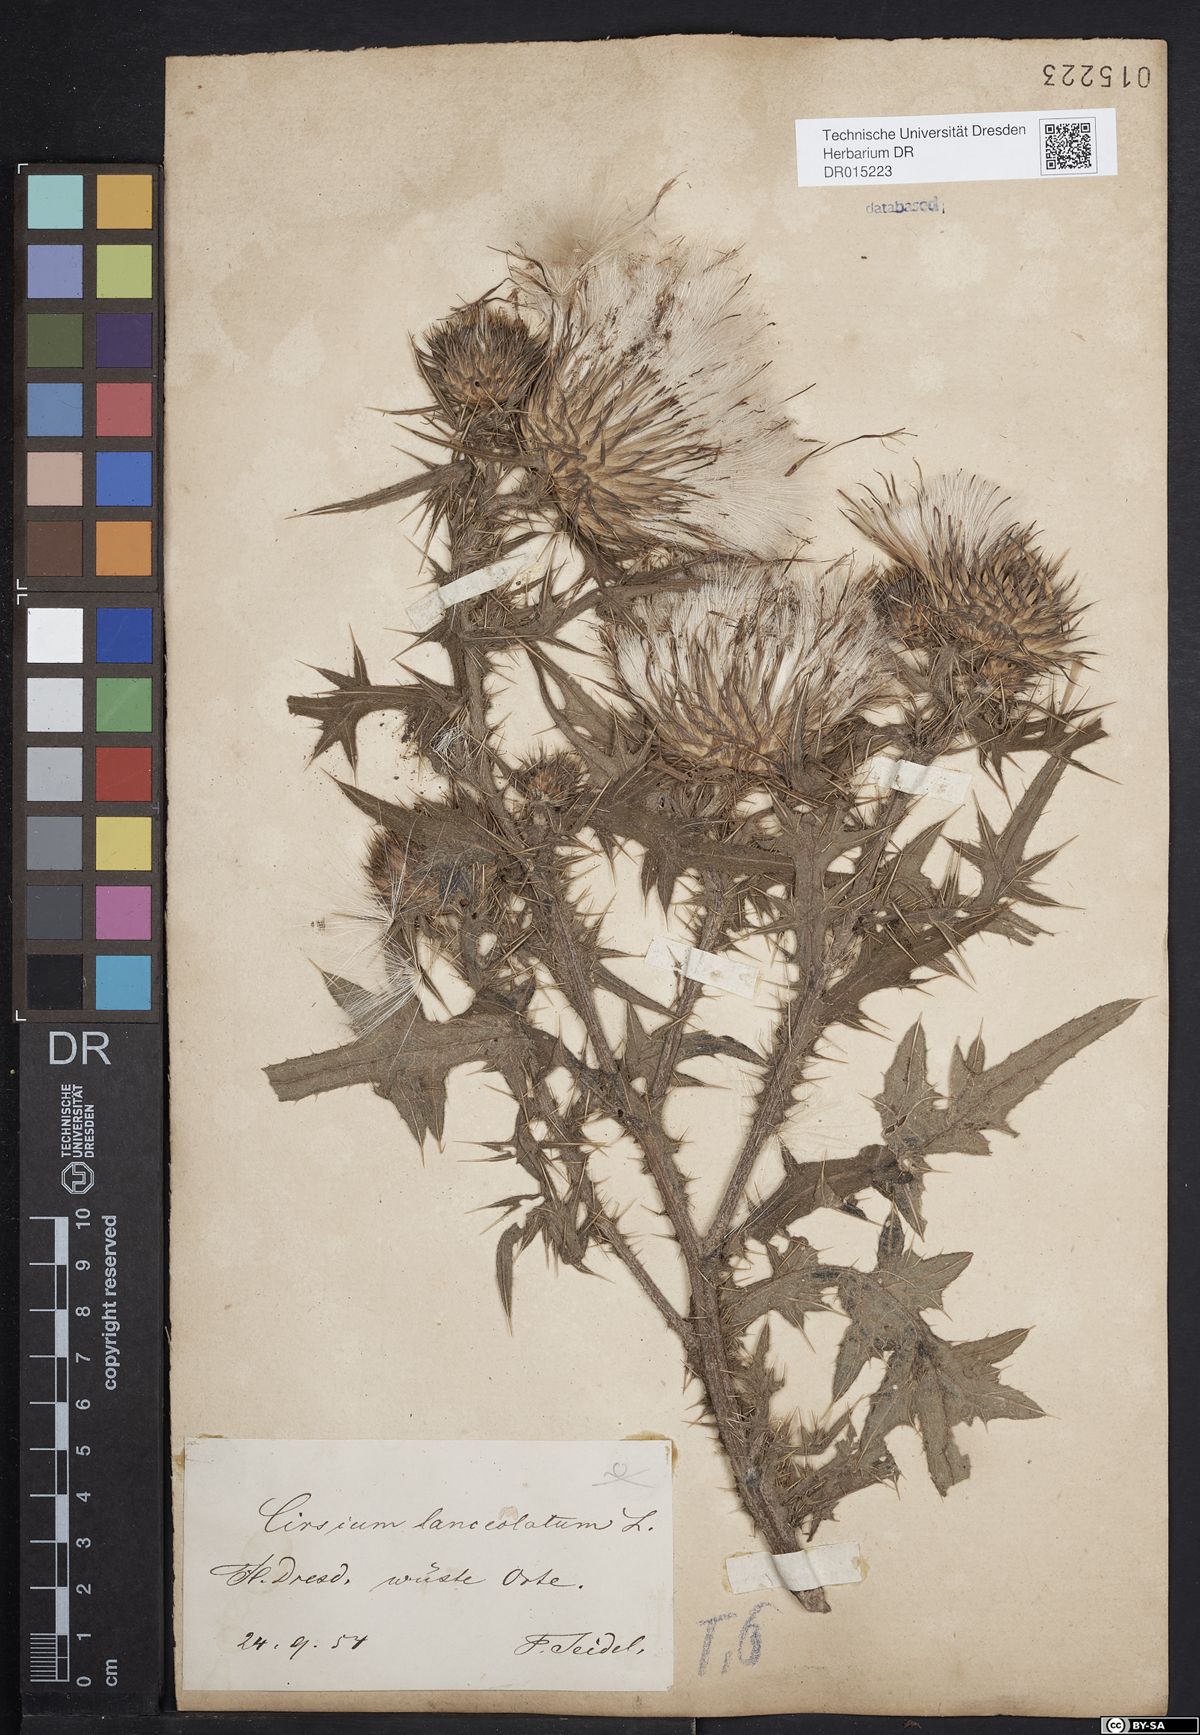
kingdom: Plantae
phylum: Tracheophyta
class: Magnoliopsida
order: Asterales
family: Asteraceae
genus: Cirsium
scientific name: Cirsium vulgare
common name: Bull thistle
